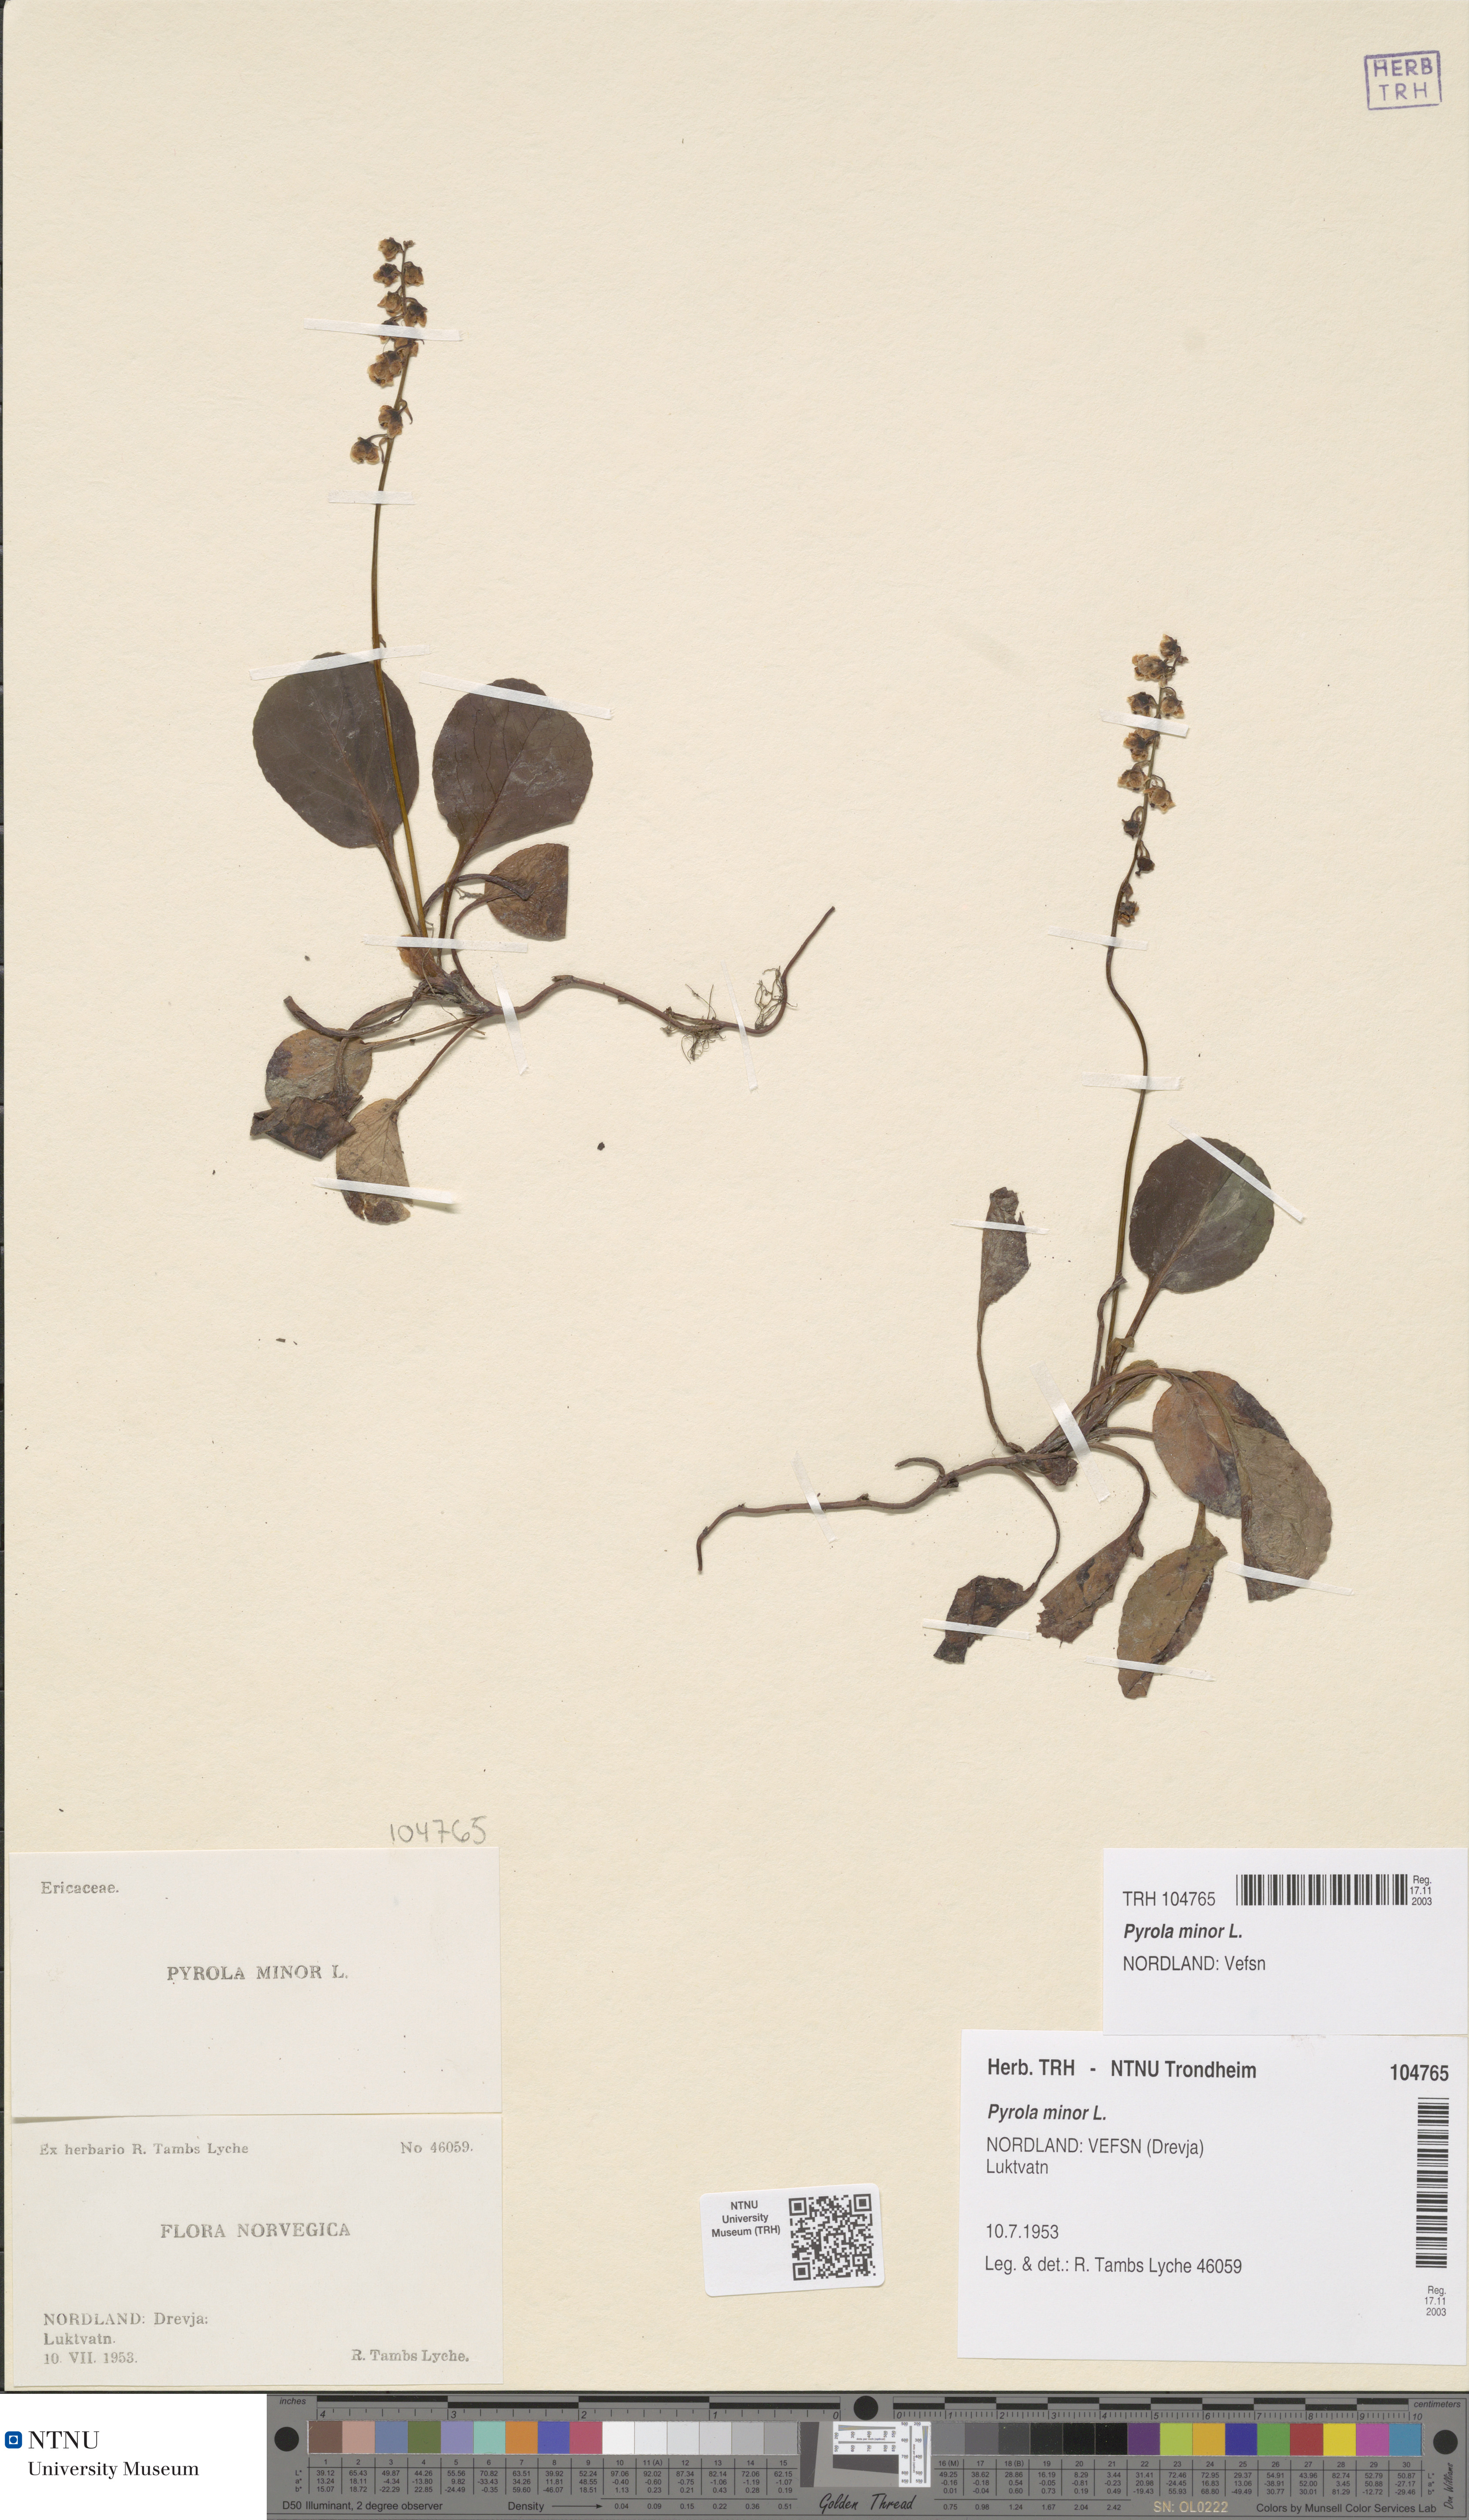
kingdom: Plantae
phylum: Tracheophyta
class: Magnoliopsida
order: Ericales
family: Ericaceae
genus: Pyrola
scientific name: Pyrola minor
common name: Common wintergreen
